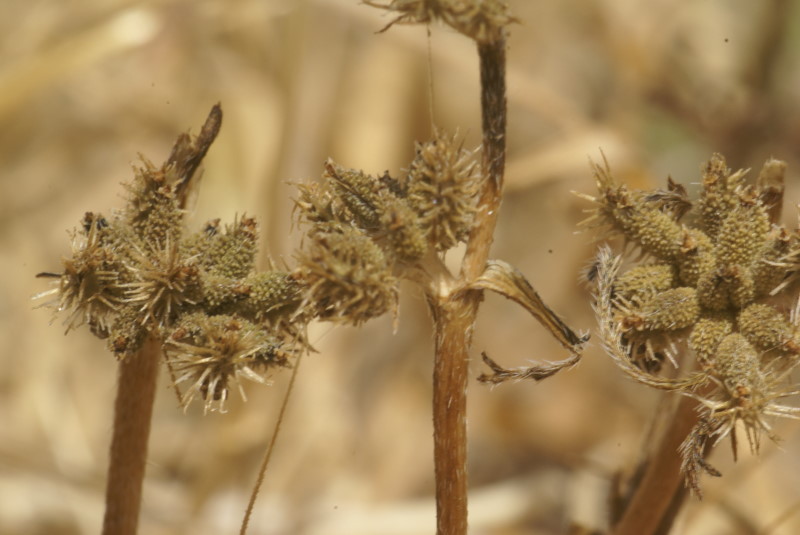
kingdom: Plantae
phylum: Tracheophyta
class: Magnoliopsida
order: Asterales
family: Asteraceae
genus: Xanthium
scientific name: Xanthium strumarium
